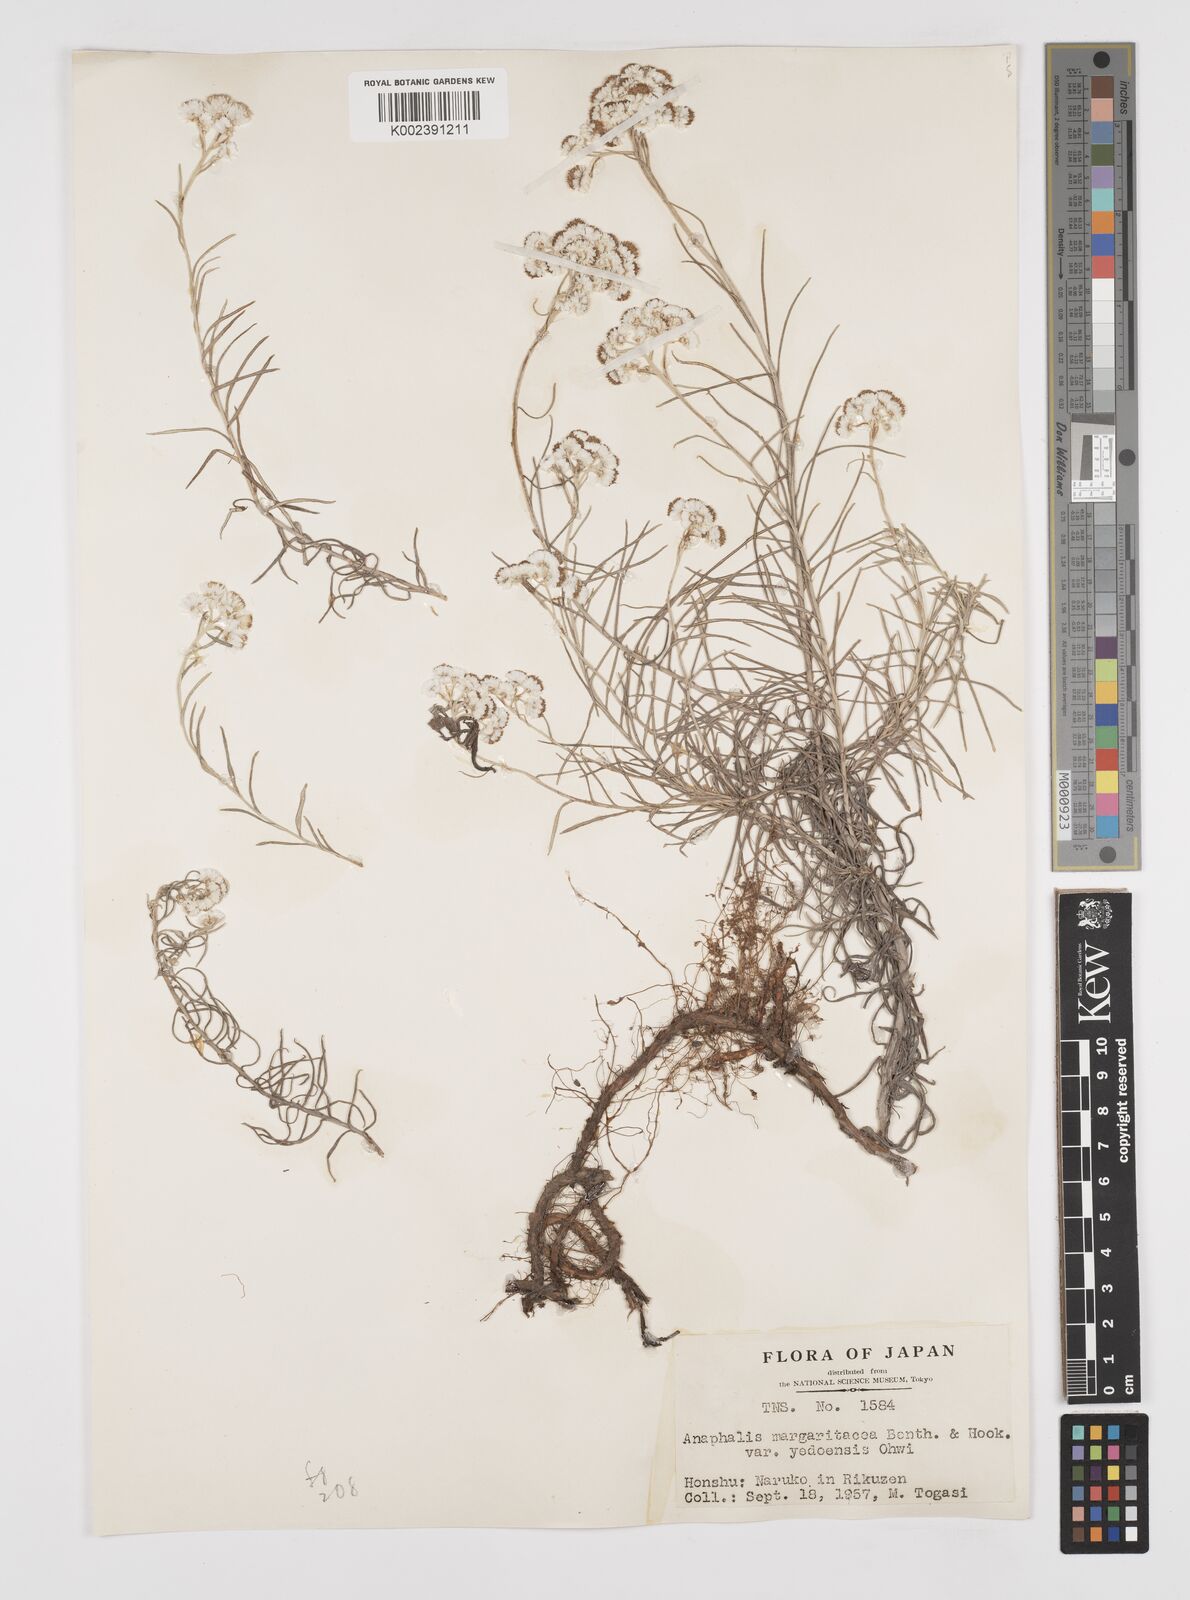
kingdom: Plantae
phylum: Tracheophyta
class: Magnoliopsida
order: Asterales
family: Asteraceae
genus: Anaphalis
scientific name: Anaphalis margaritacea
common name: Pearly everlasting
